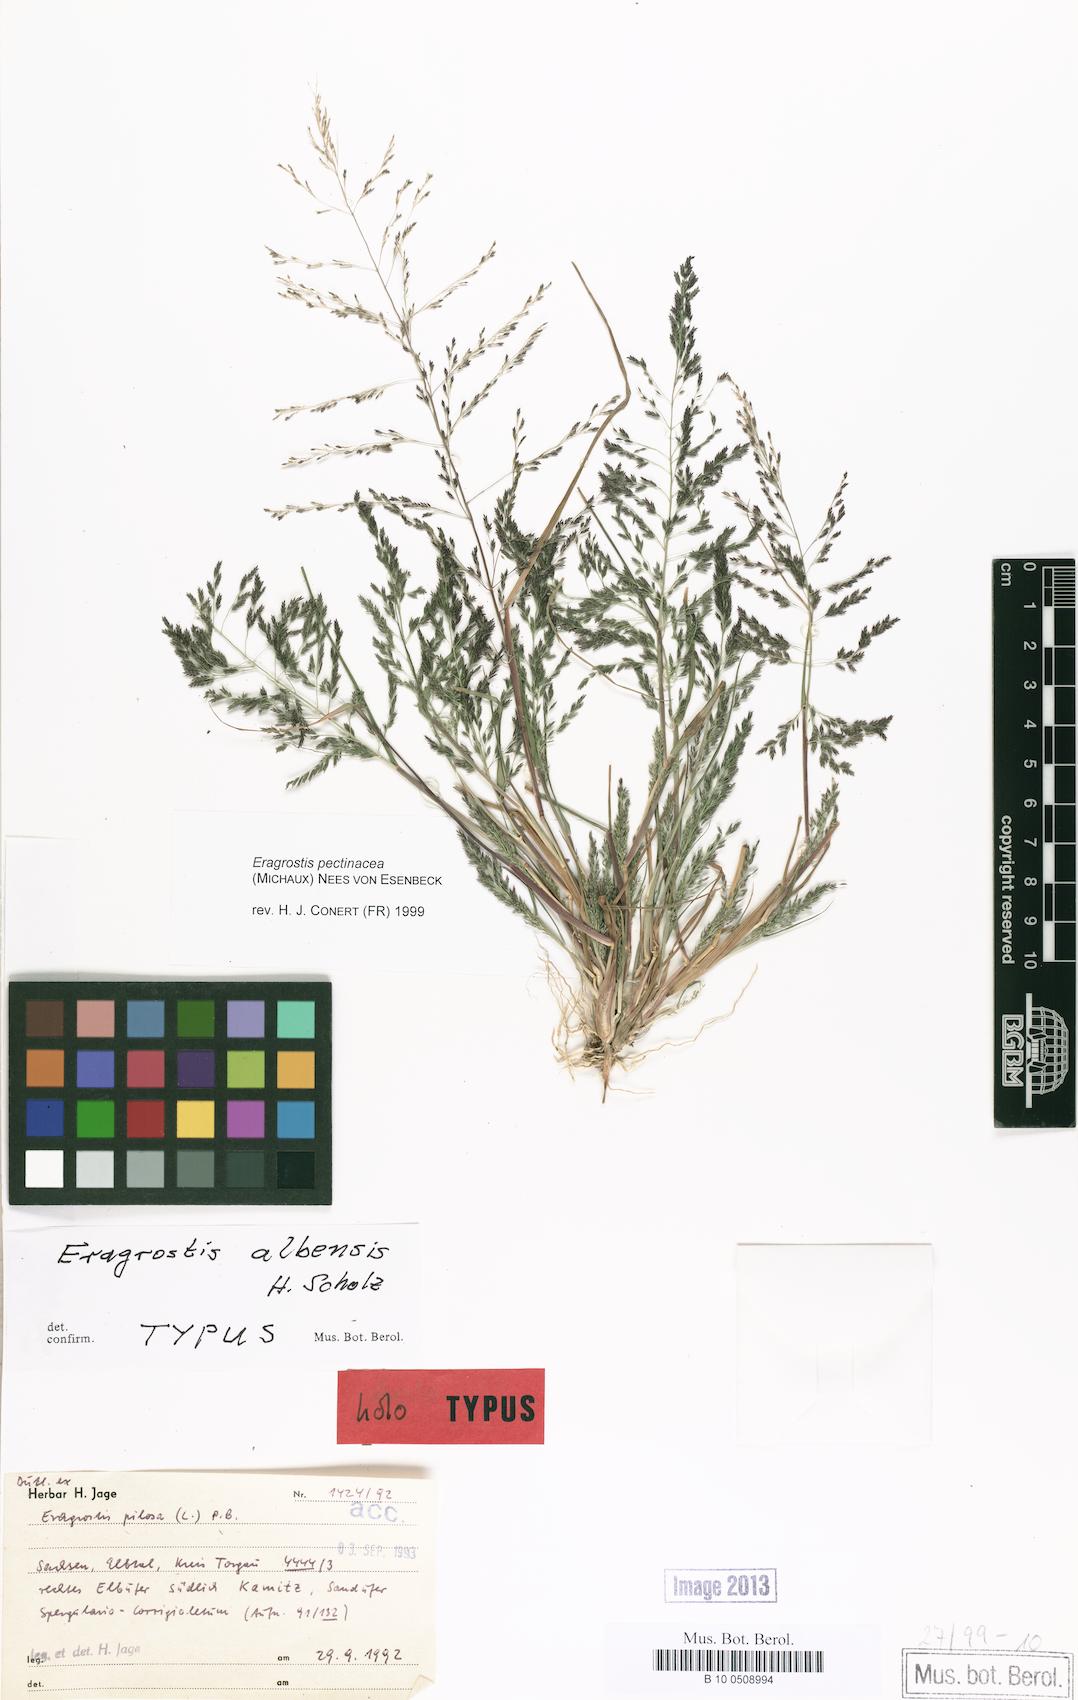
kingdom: Plantae
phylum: Tracheophyta
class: Liliopsida
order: Poales
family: Poaceae
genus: Eragrostis
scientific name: Eragrostis pilosa
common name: Indian lovegrass
